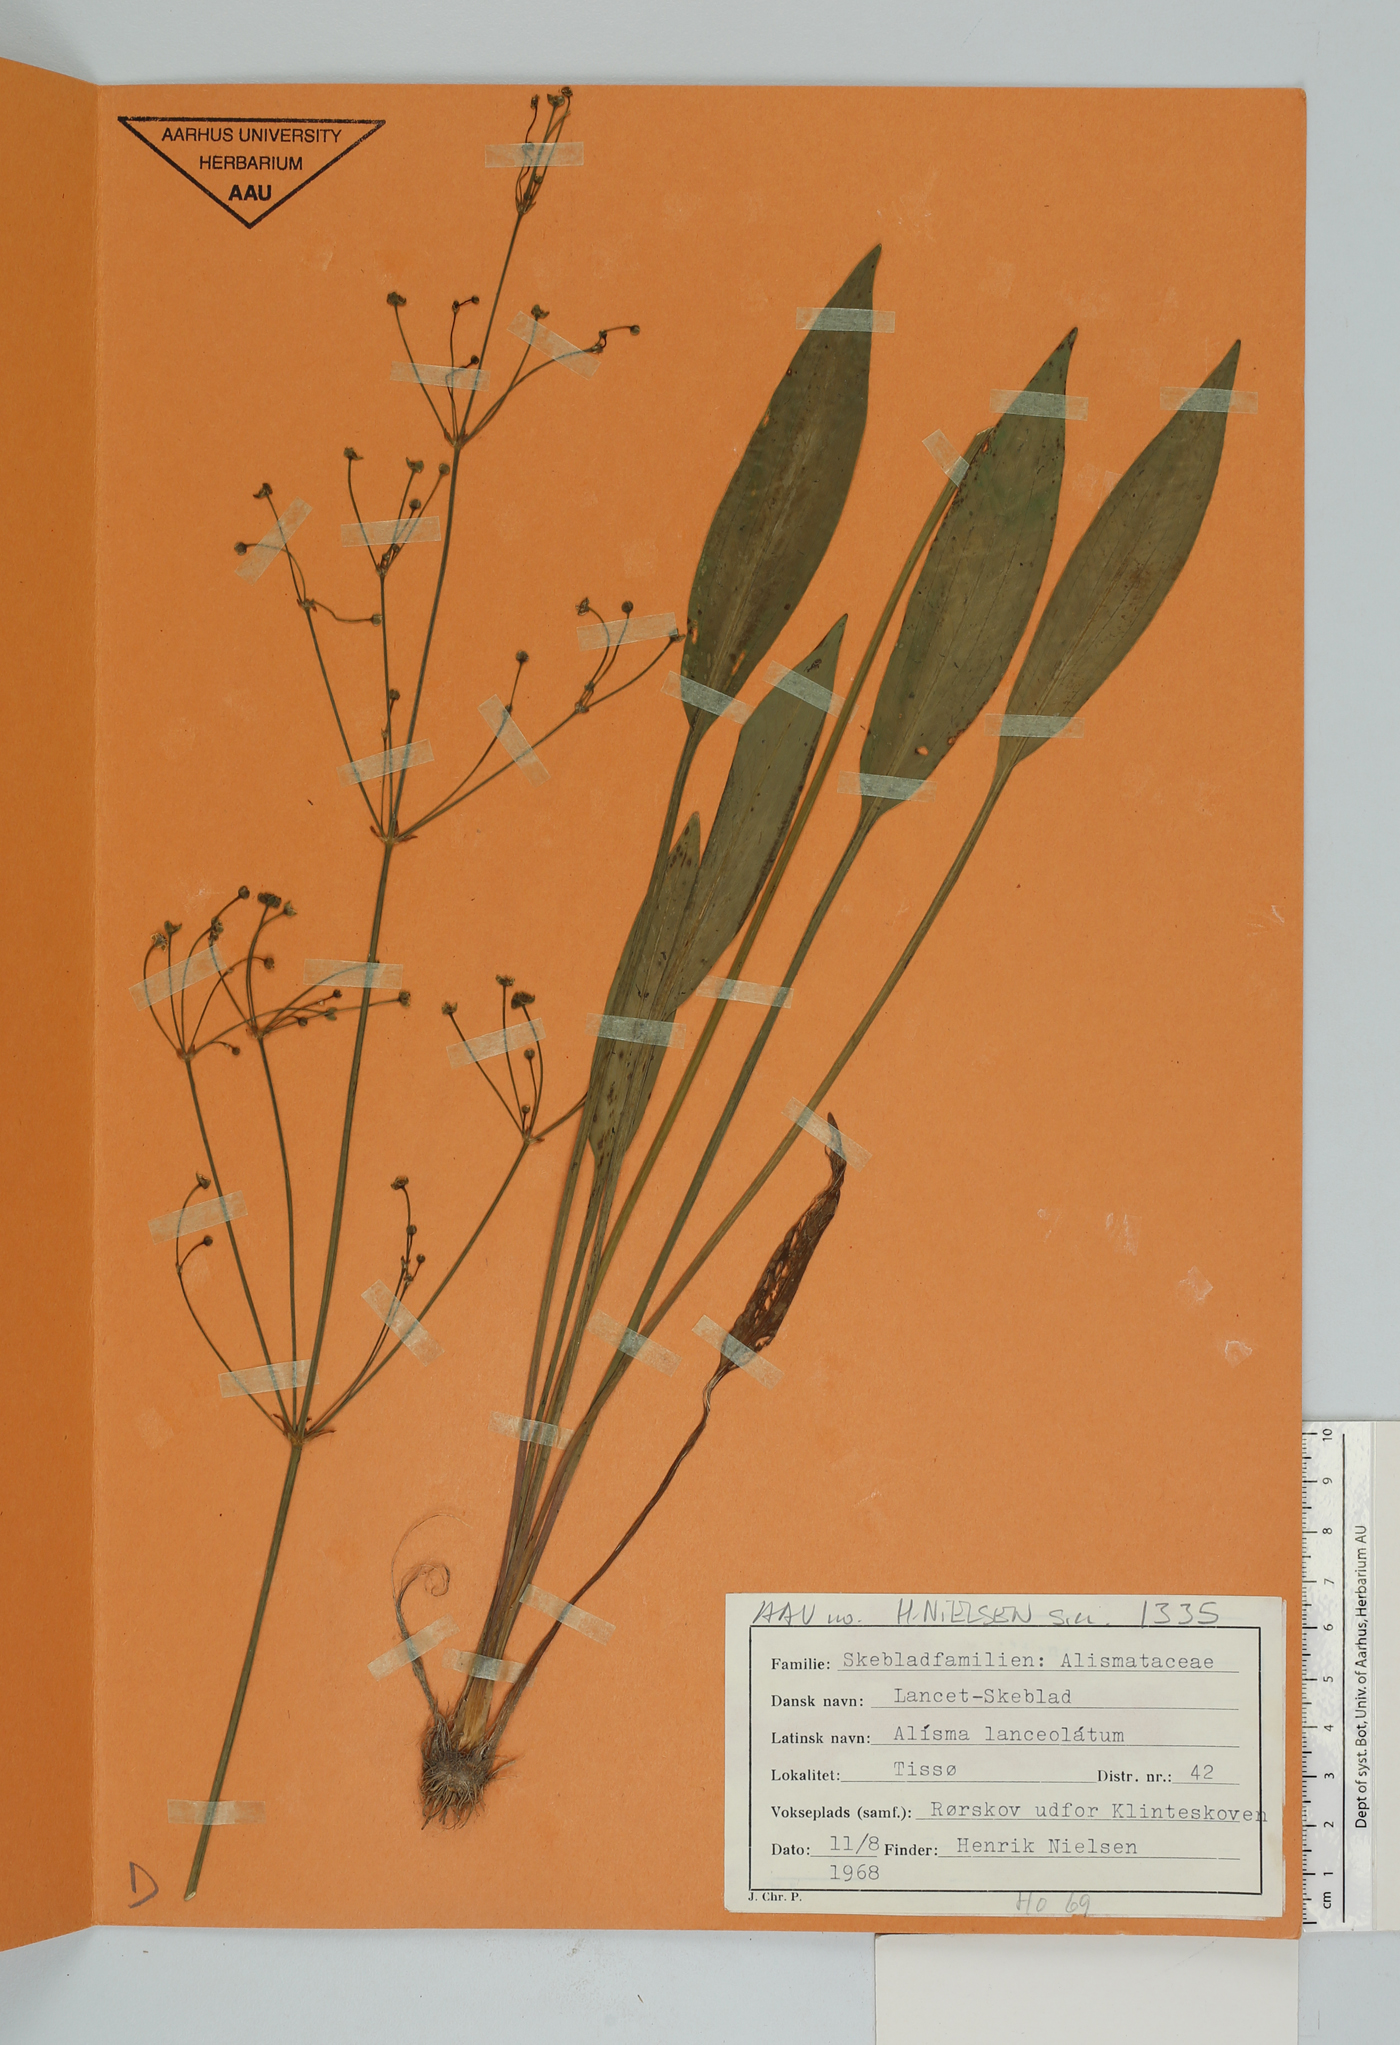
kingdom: Plantae
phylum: Tracheophyta
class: Liliopsida
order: Alismatales
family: Alismataceae
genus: Alisma
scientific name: Alisma lanceolatum
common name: Narrow-leaved water-plantain
